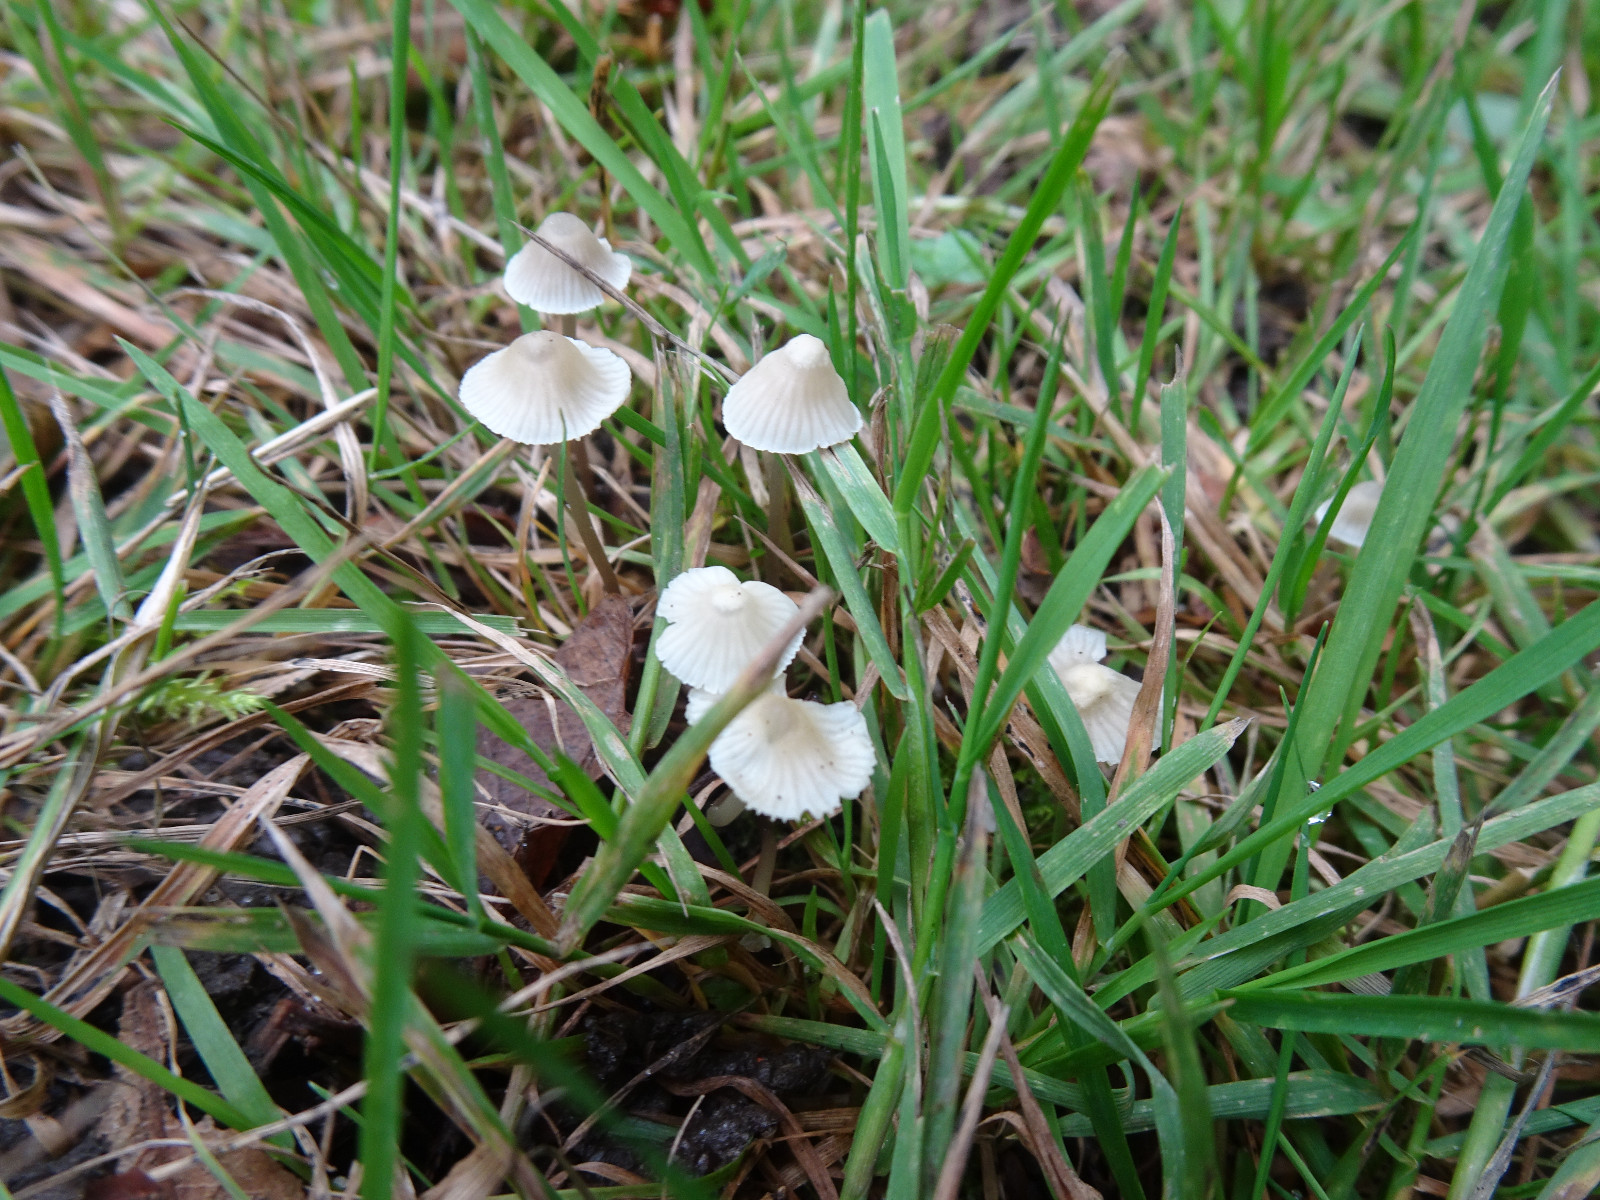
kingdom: Fungi
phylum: Basidiomycota
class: Agaricomycetes
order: Agaricales
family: Mycenaceae
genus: Mycena
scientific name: Mycena flavescens
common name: grågul huesvamp
